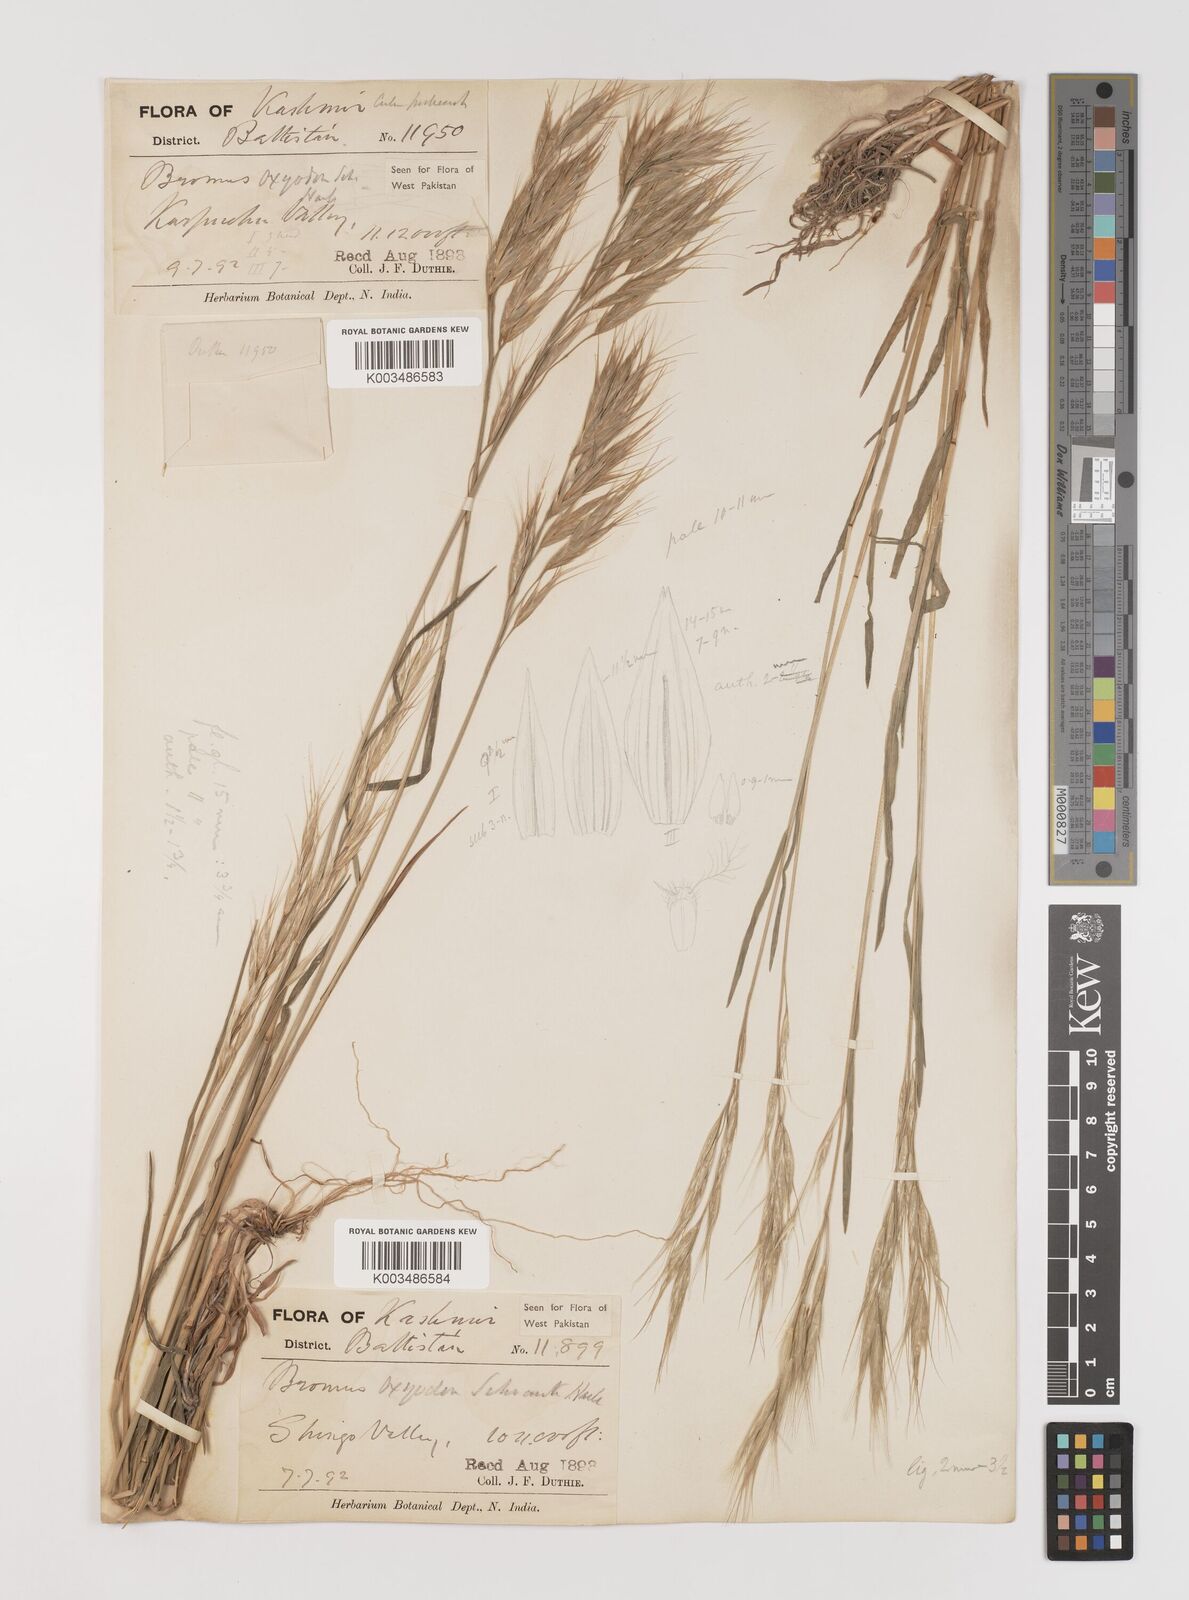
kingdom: Plantae
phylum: Tracheophyta
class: Liliopsida
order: Poales
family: Poaceae
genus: Bromus
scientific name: Bromus oxyodon
